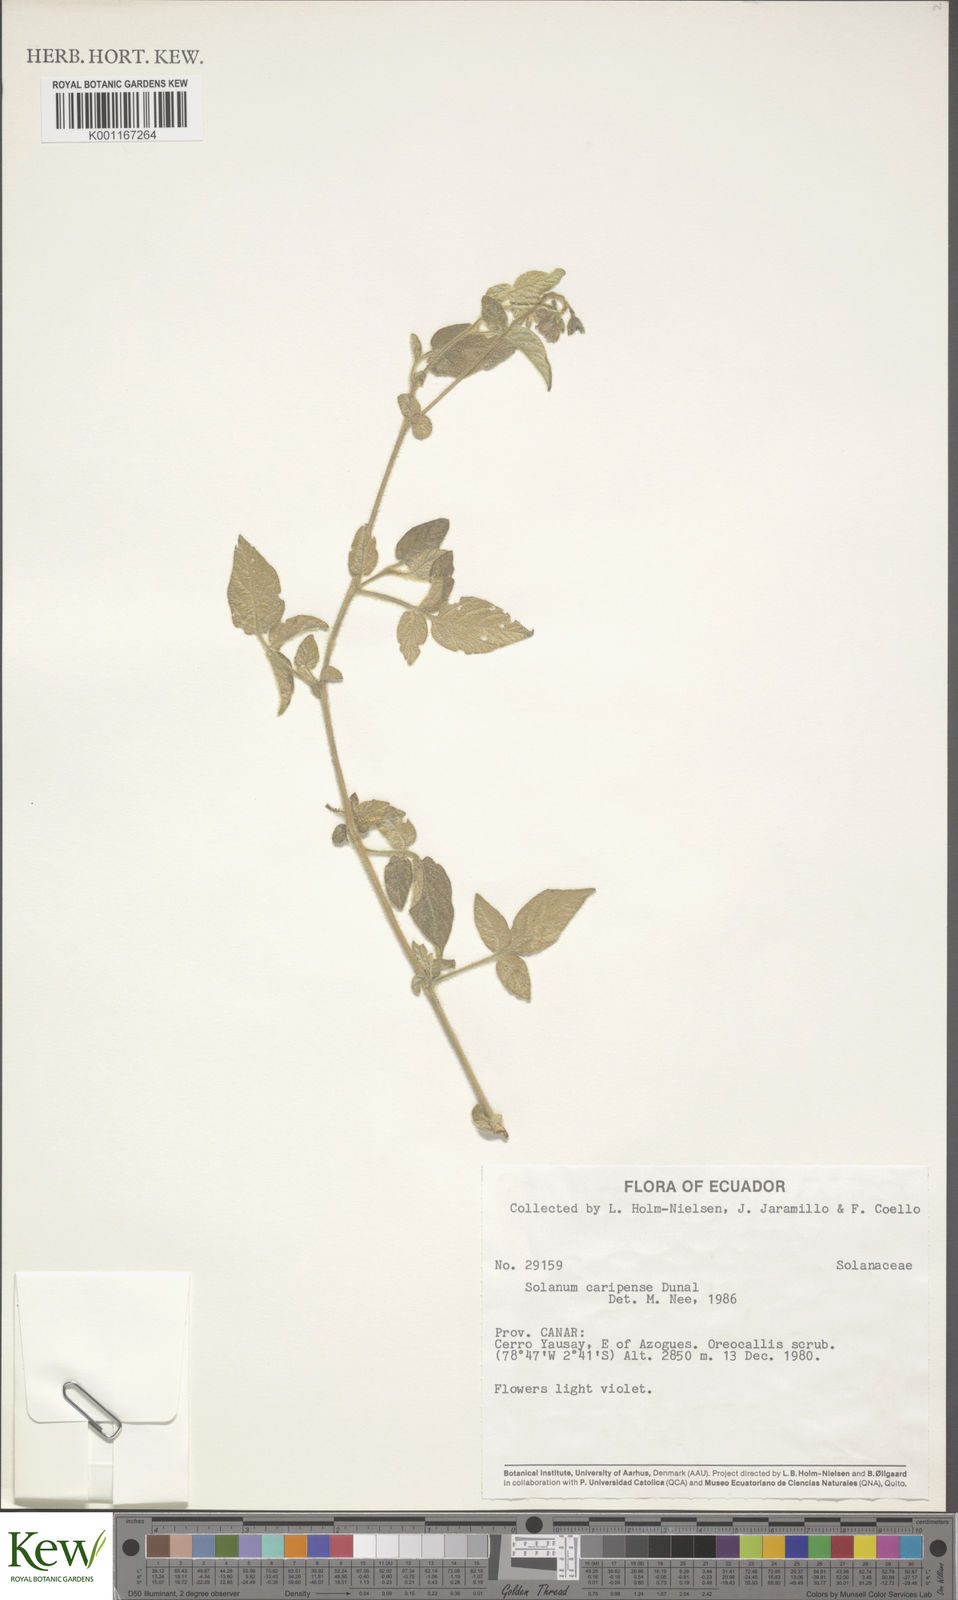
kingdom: Plantae
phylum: Tracheophyta
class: Magnoliopsida
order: Solanales
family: Solanaceae
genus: Solanum
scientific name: Solanum caripense
